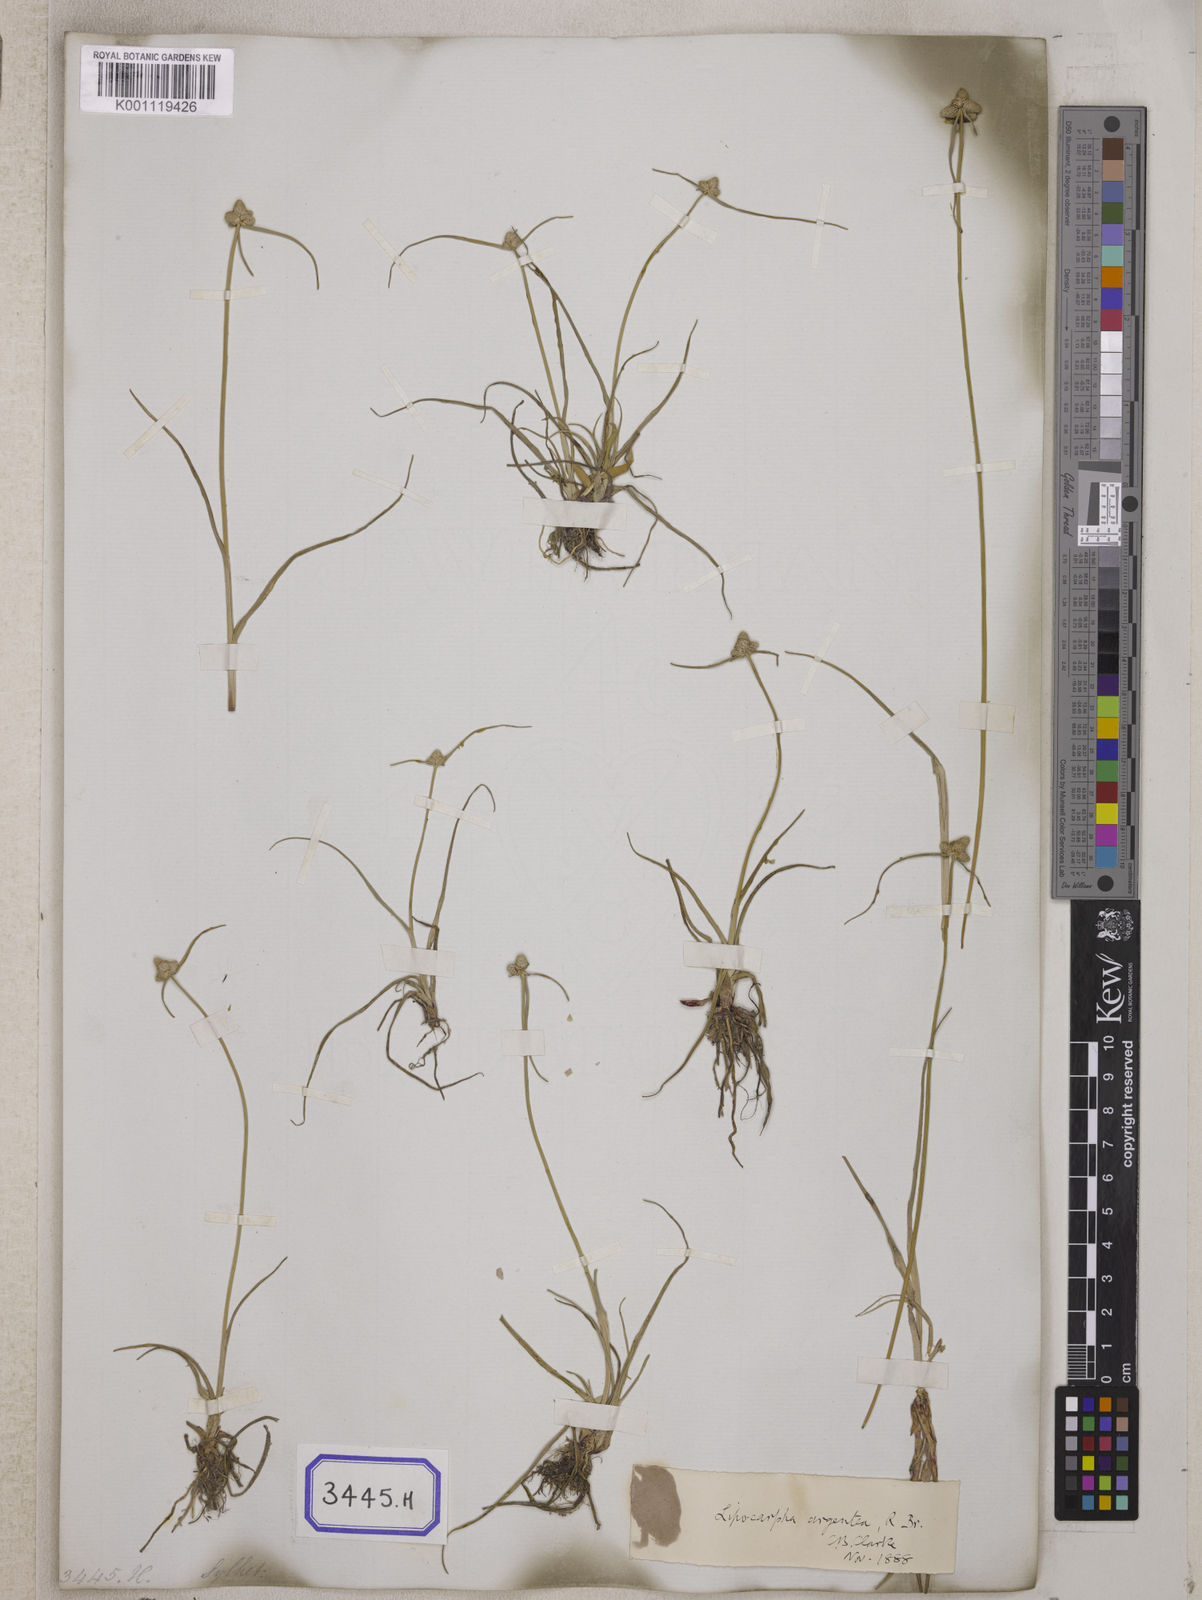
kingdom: Plantae
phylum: Tracheophyta
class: Liliopsida
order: Poales
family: Cyperaceae
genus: Cyperus
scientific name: Cyperus
